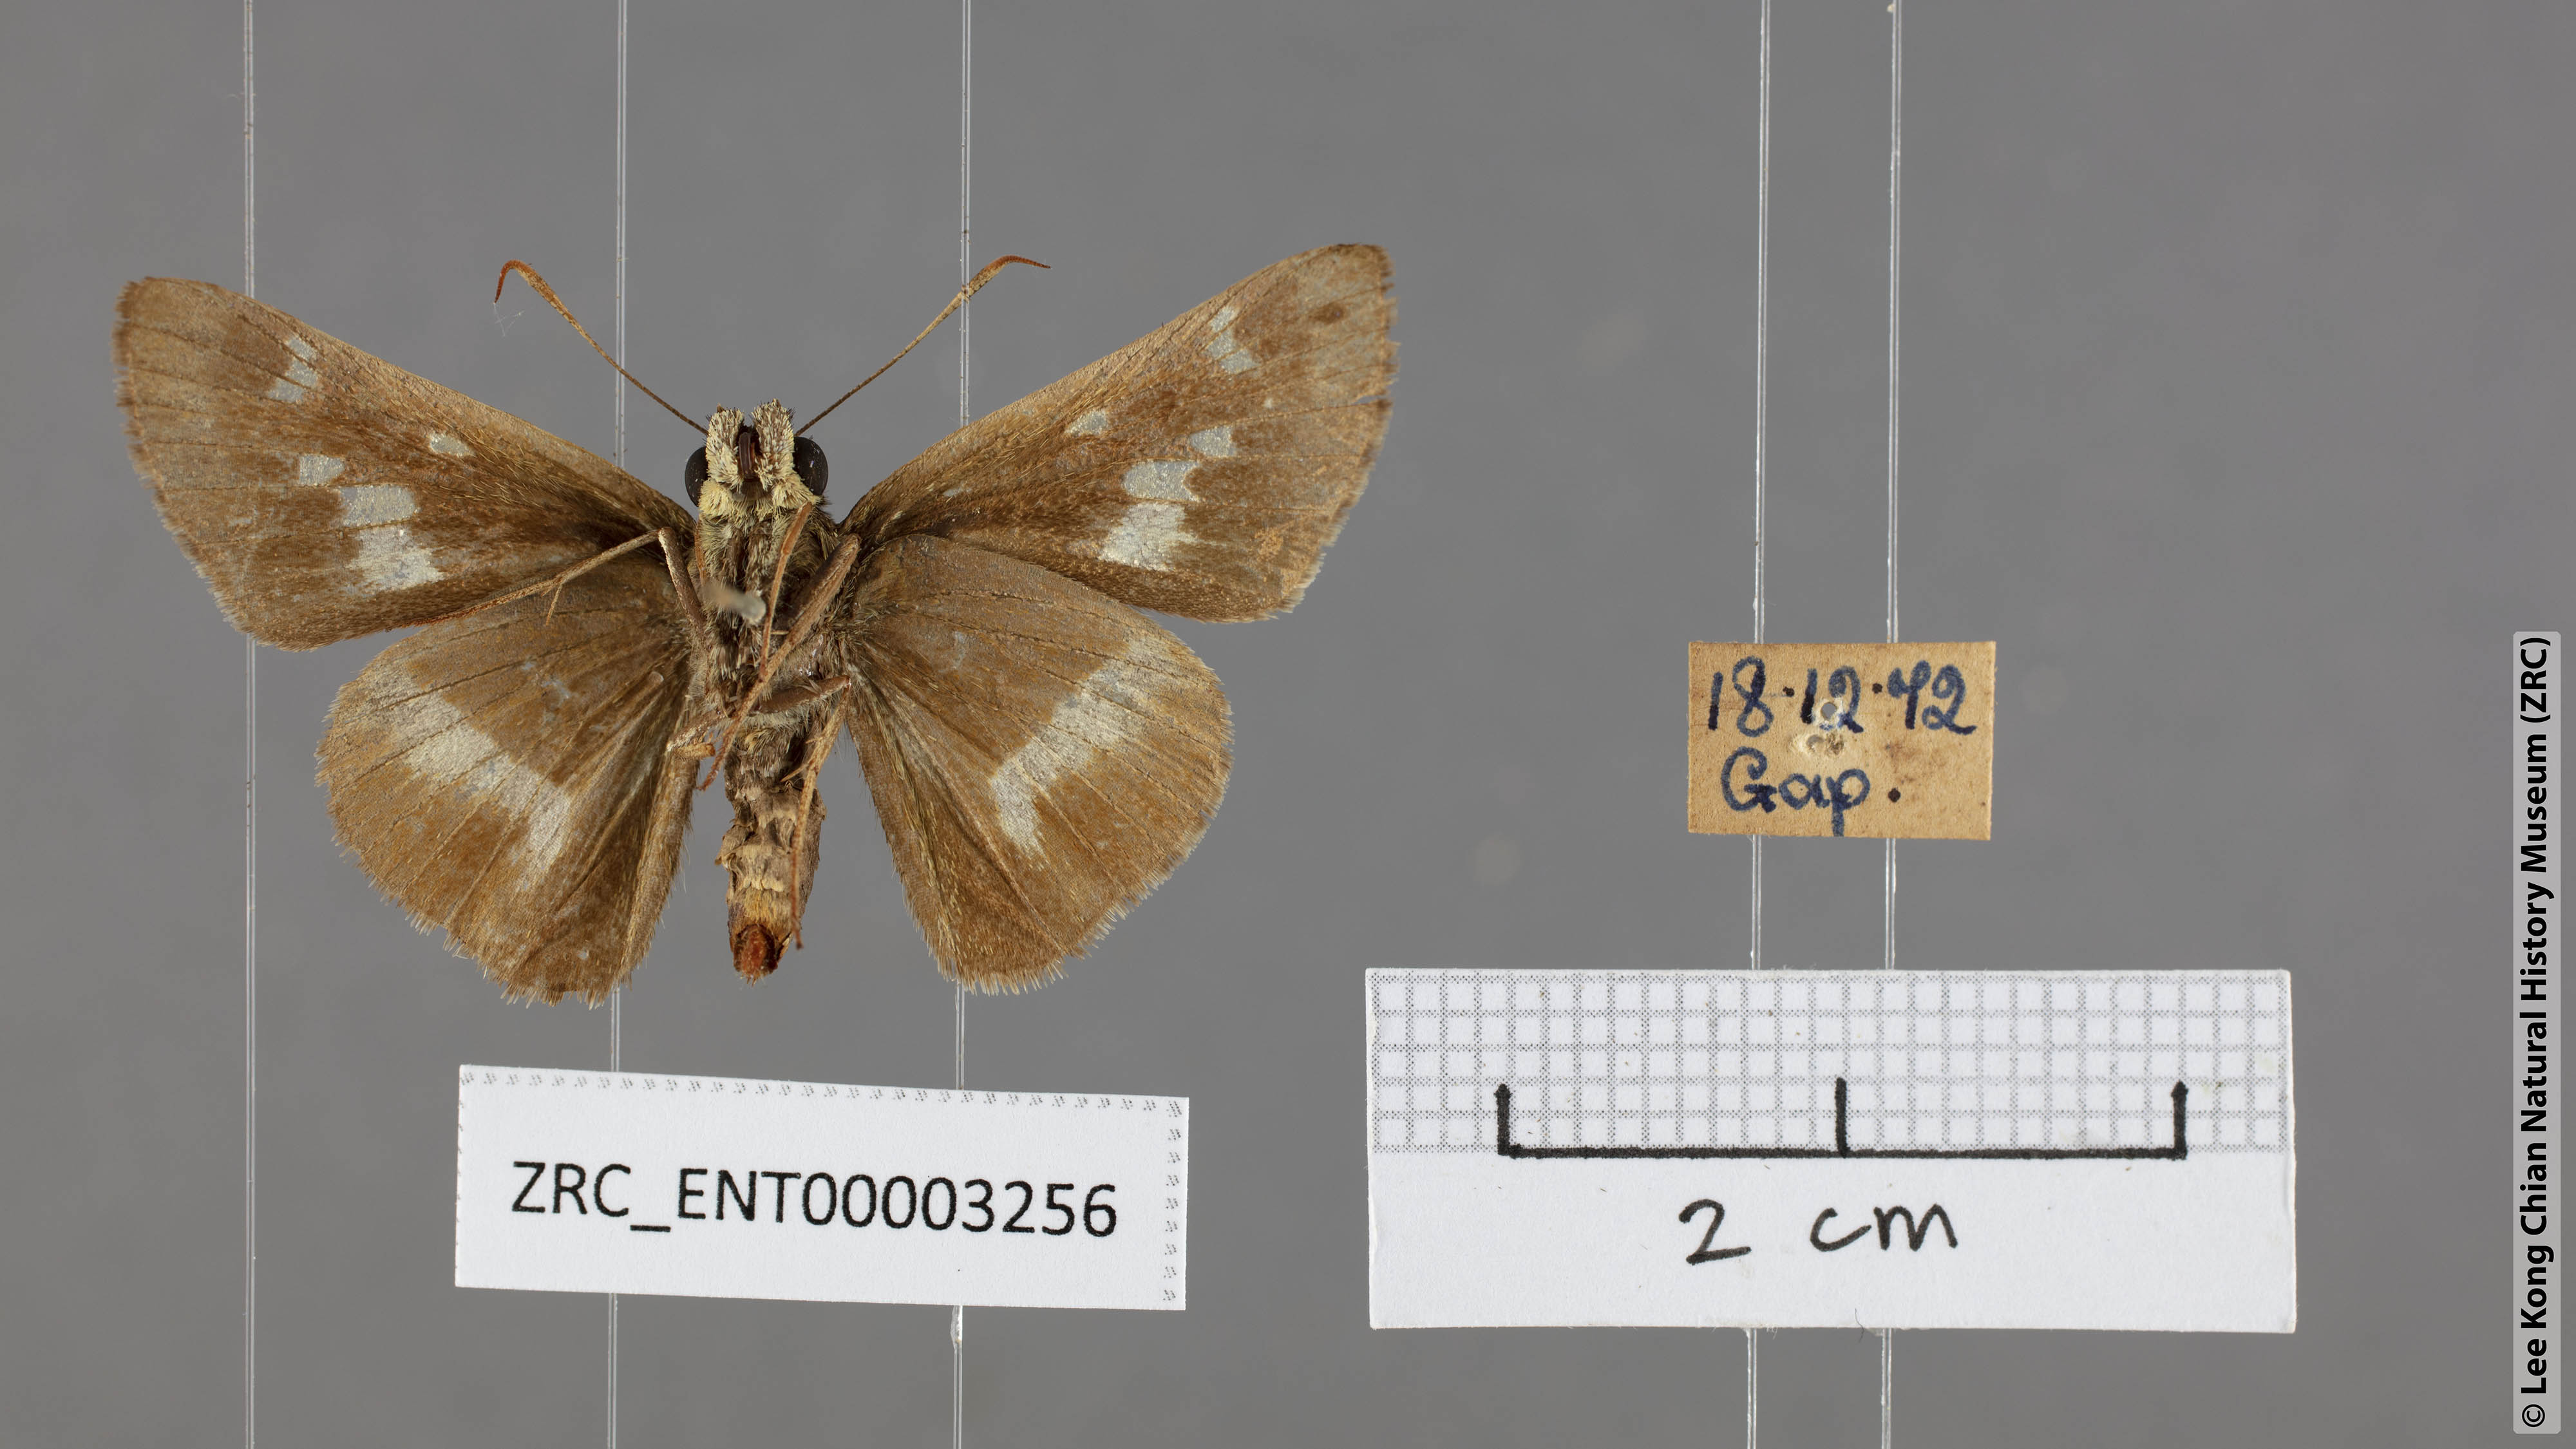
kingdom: Animalia
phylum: Arthropoda
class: Insecta
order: Lepidoptera
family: Hesperiidae
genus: Halpe
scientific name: Halpe zema
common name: Dark banded ace
